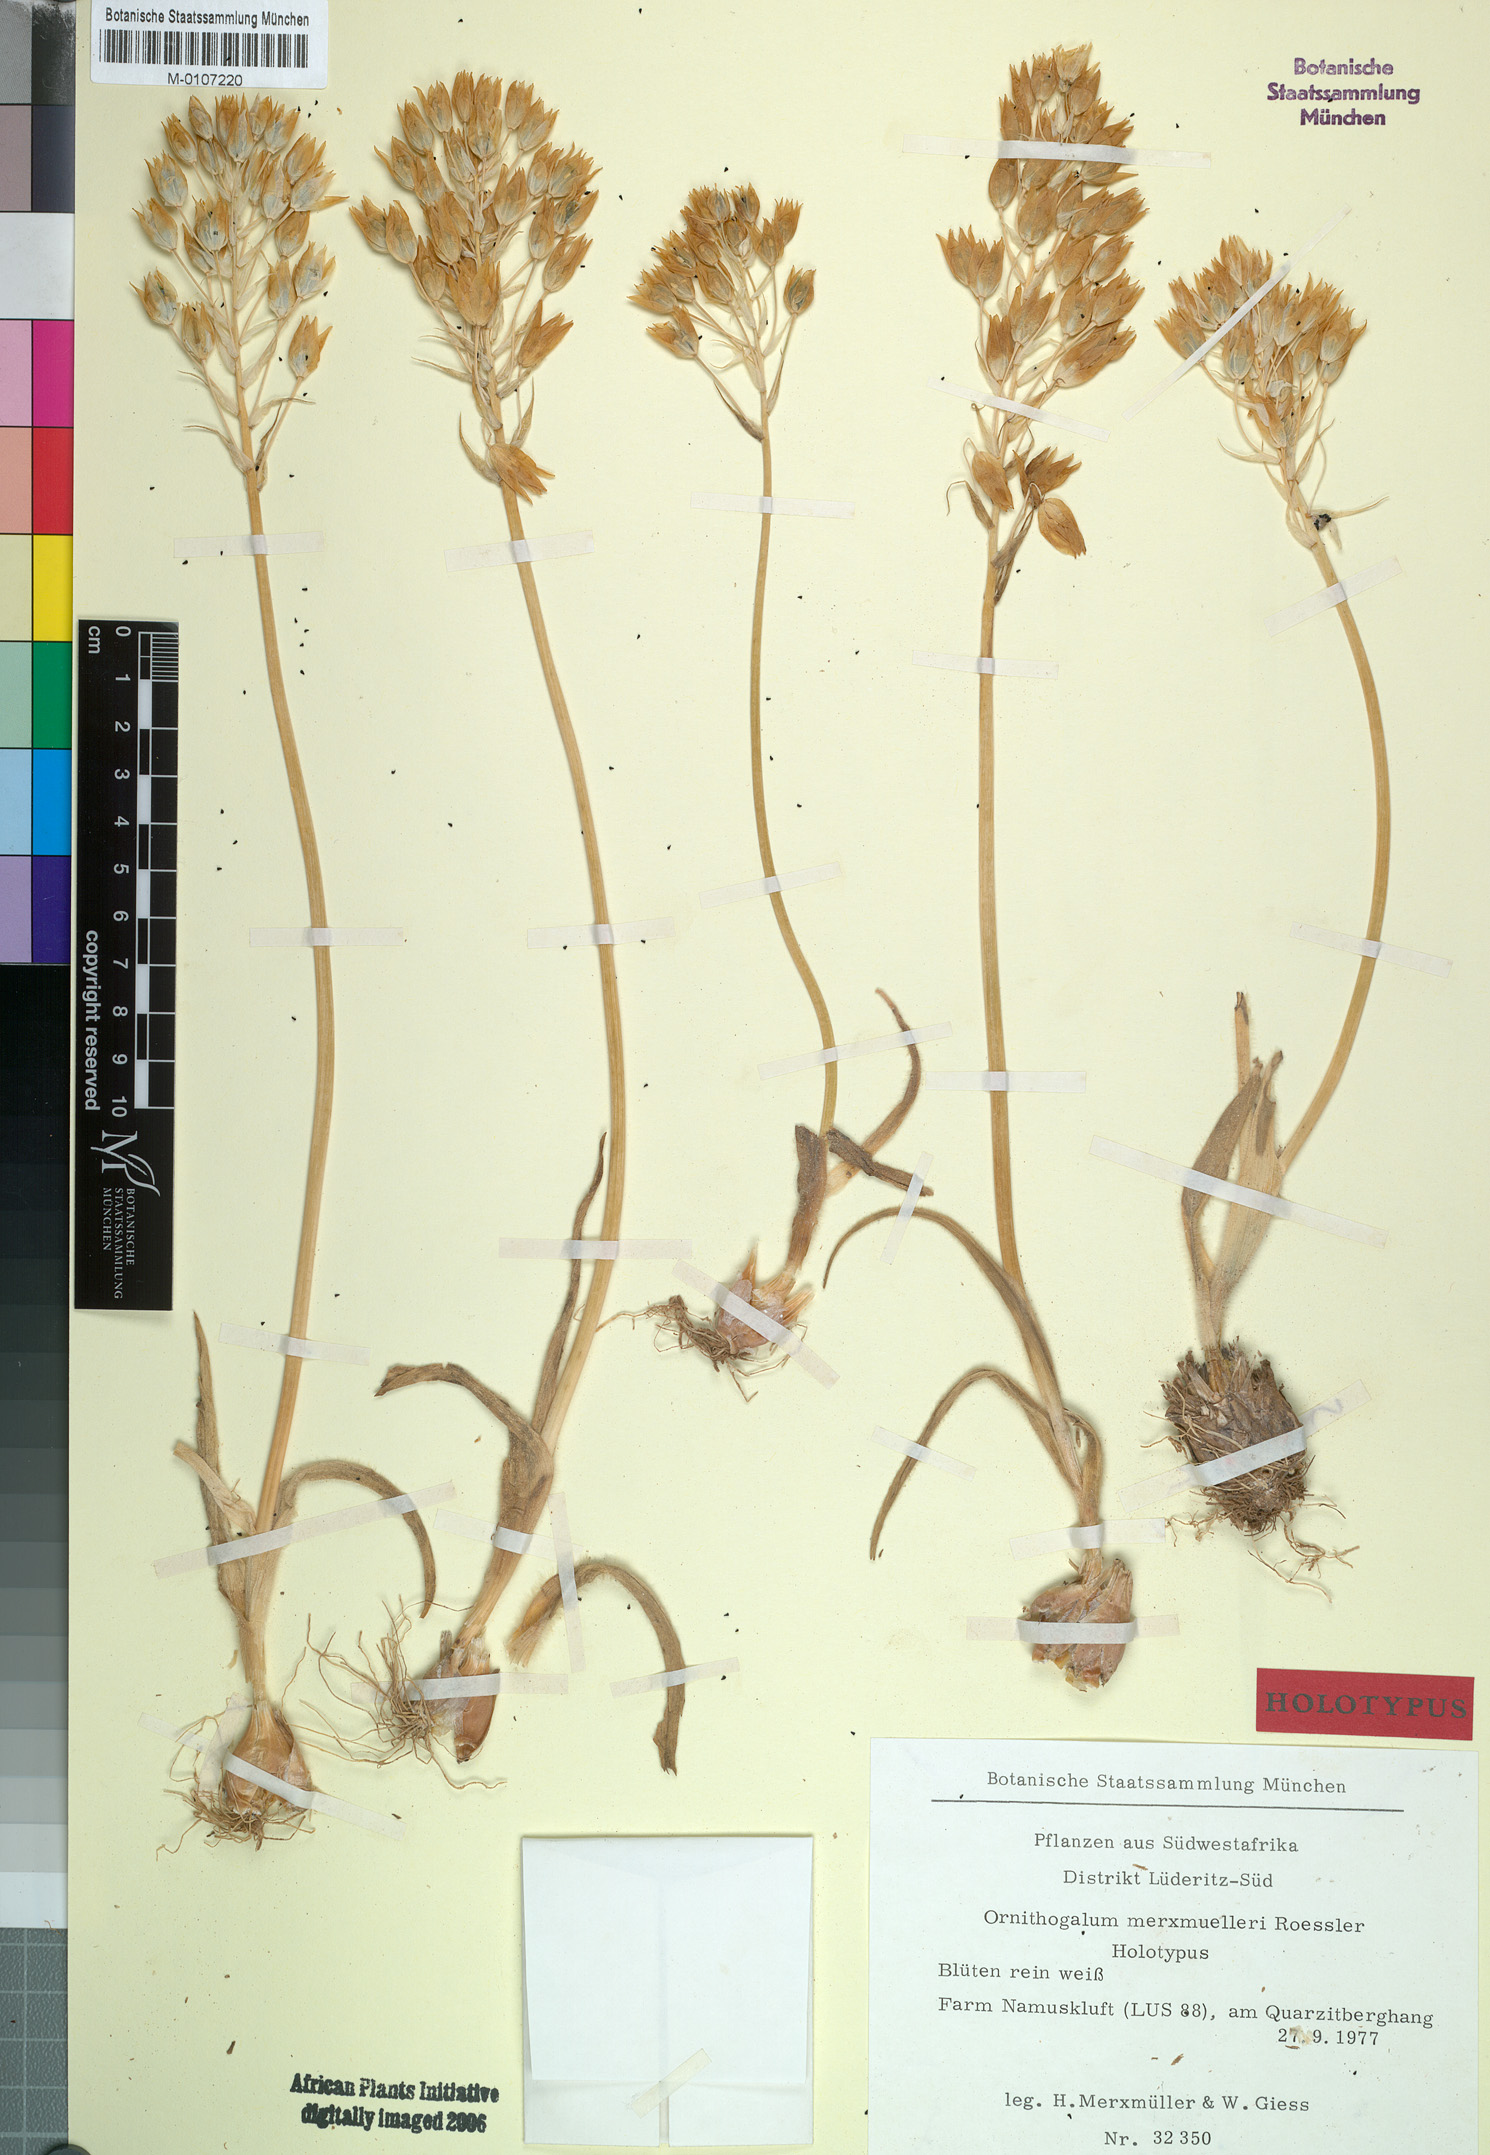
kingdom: Plantae
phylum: Tracheophyta
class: Liliopsida
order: Asparagales
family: Asparagaceae
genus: Ornithogalum
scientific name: Ornithogalum puberulum
